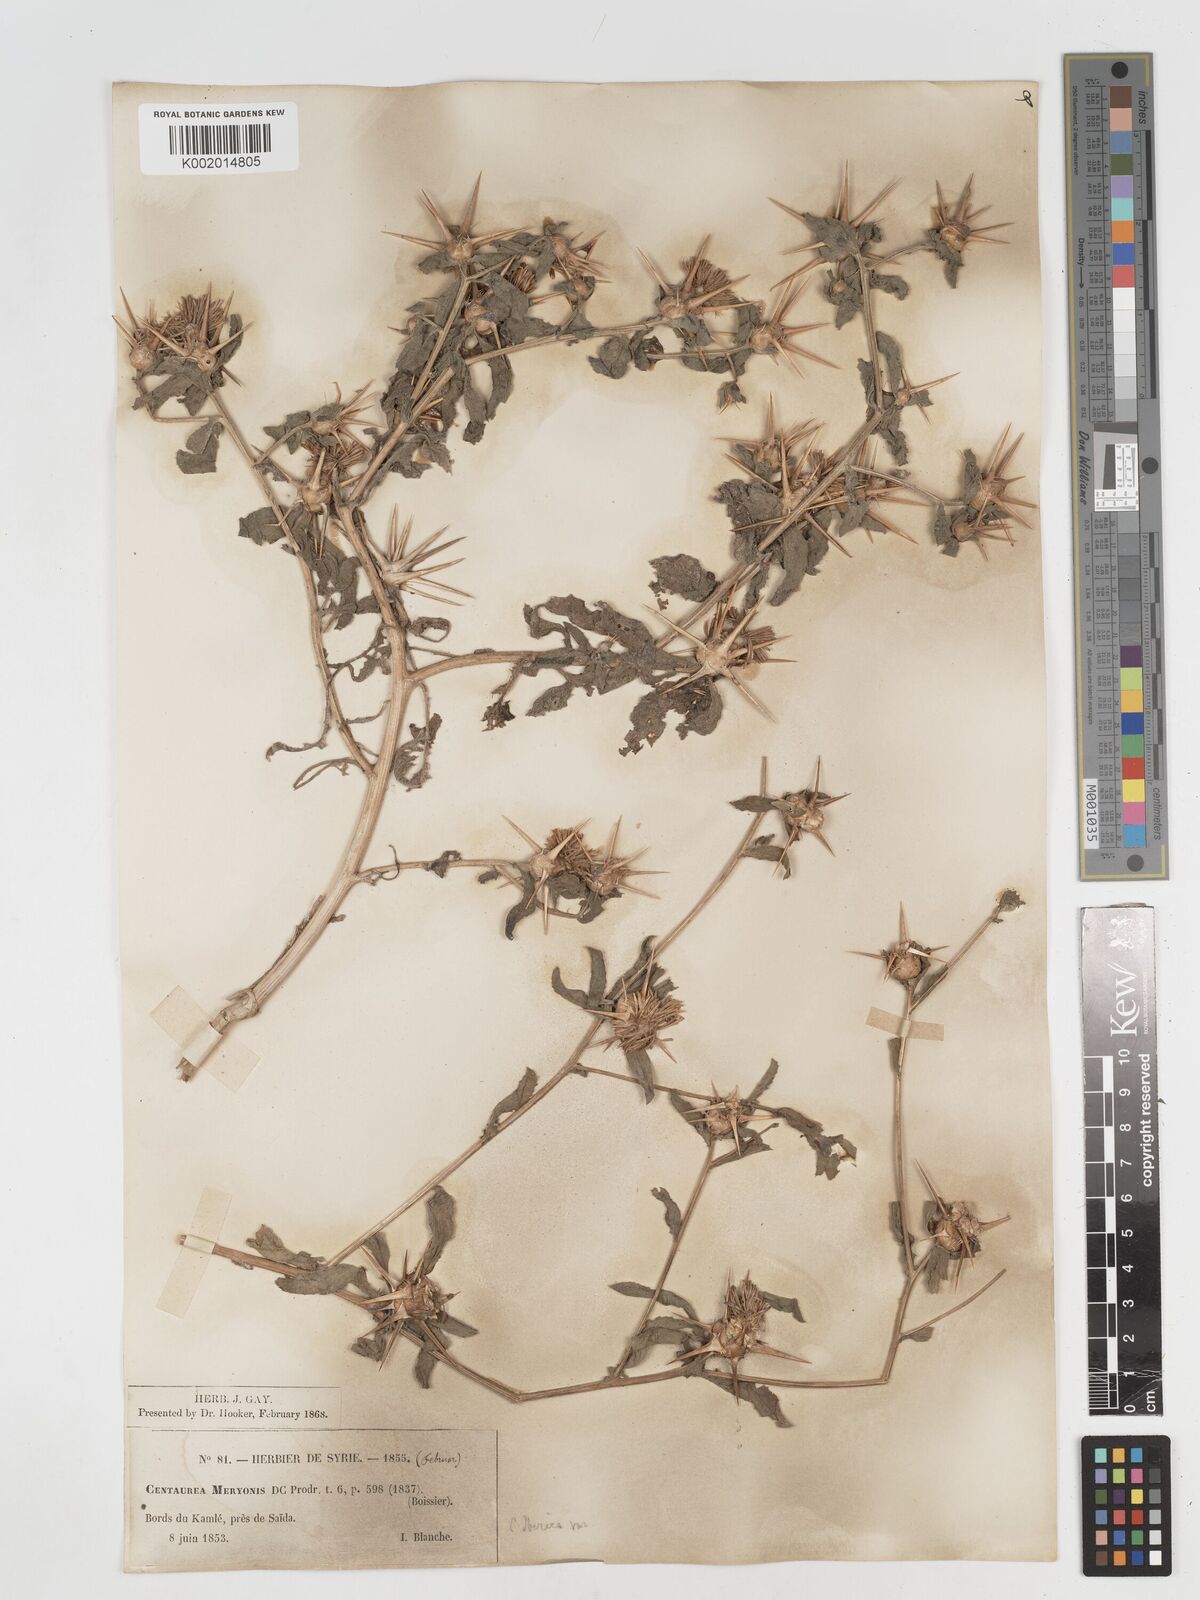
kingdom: Plantae
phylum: Tracheophyta
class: Magnoliopsida
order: Asterales
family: Asteraceae
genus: Centaurea
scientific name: Centaurea iberica
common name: Iberian knapweed
